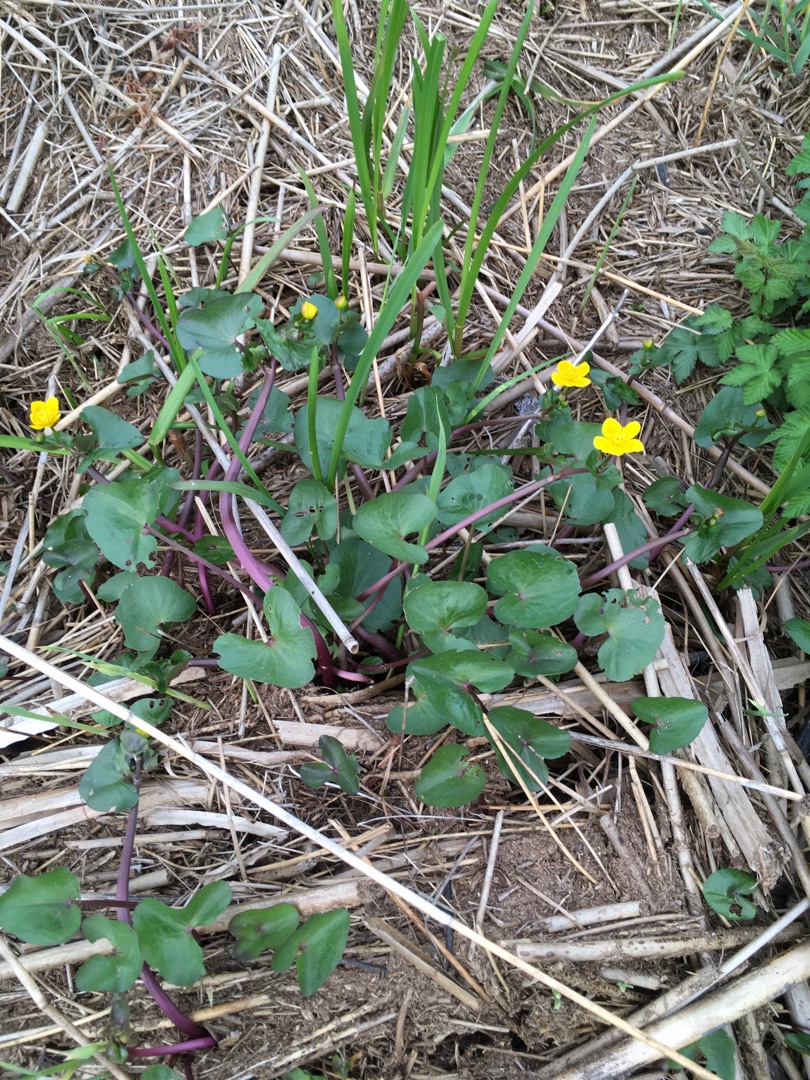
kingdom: Plantae
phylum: Tracheophyta
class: Magnoliopsida
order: Ranunculales
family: Ranunculaceae
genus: Caltha
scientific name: Caltha palustris
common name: Eng-kabbeleje
